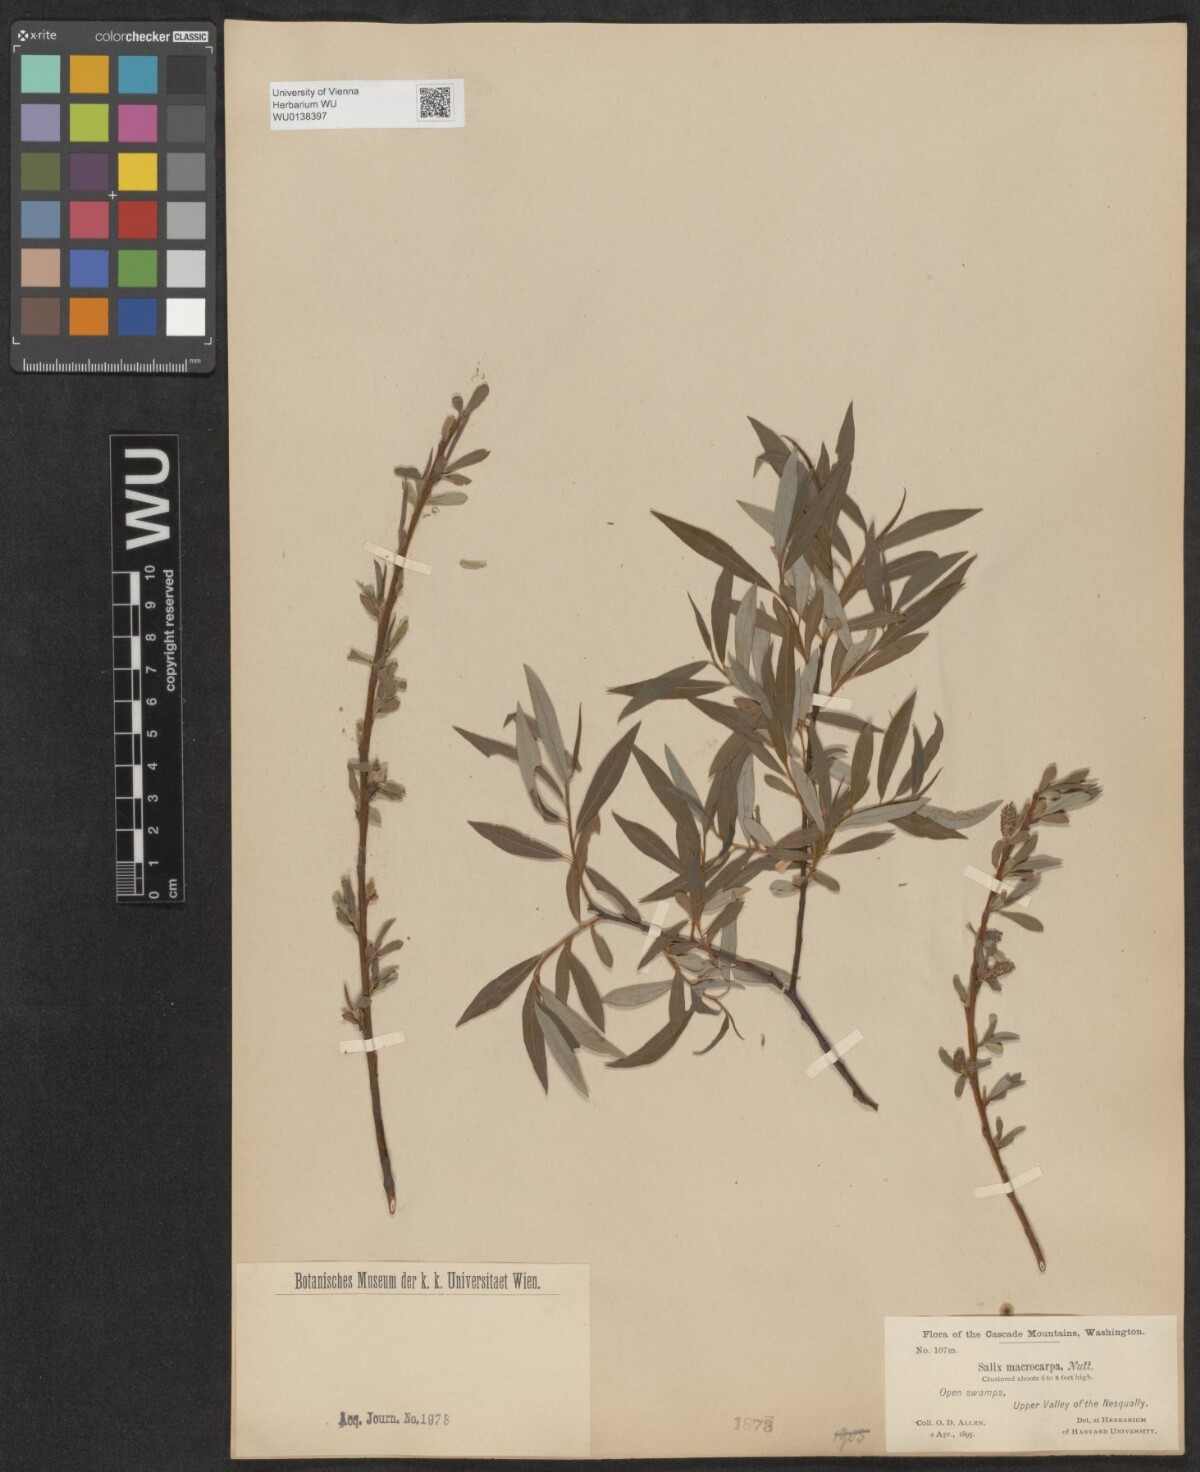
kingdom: Plantae
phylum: Tracheophyta
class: Magnoliopsida
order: Malpighiales
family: Salicaceae
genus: Salix
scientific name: Salix glauca
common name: Glaucous willow
